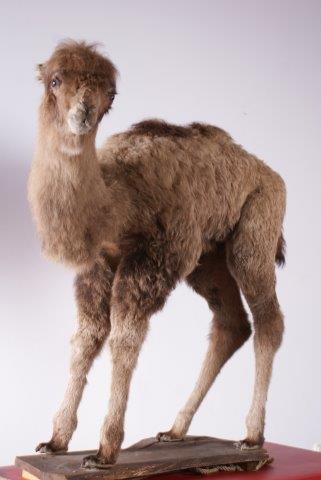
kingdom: Animalia
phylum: Chordata
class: Mammalia
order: Artiodactyla
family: Camelidae
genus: Camelus
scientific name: Camelus bactrianus
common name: Bactrian Camel
